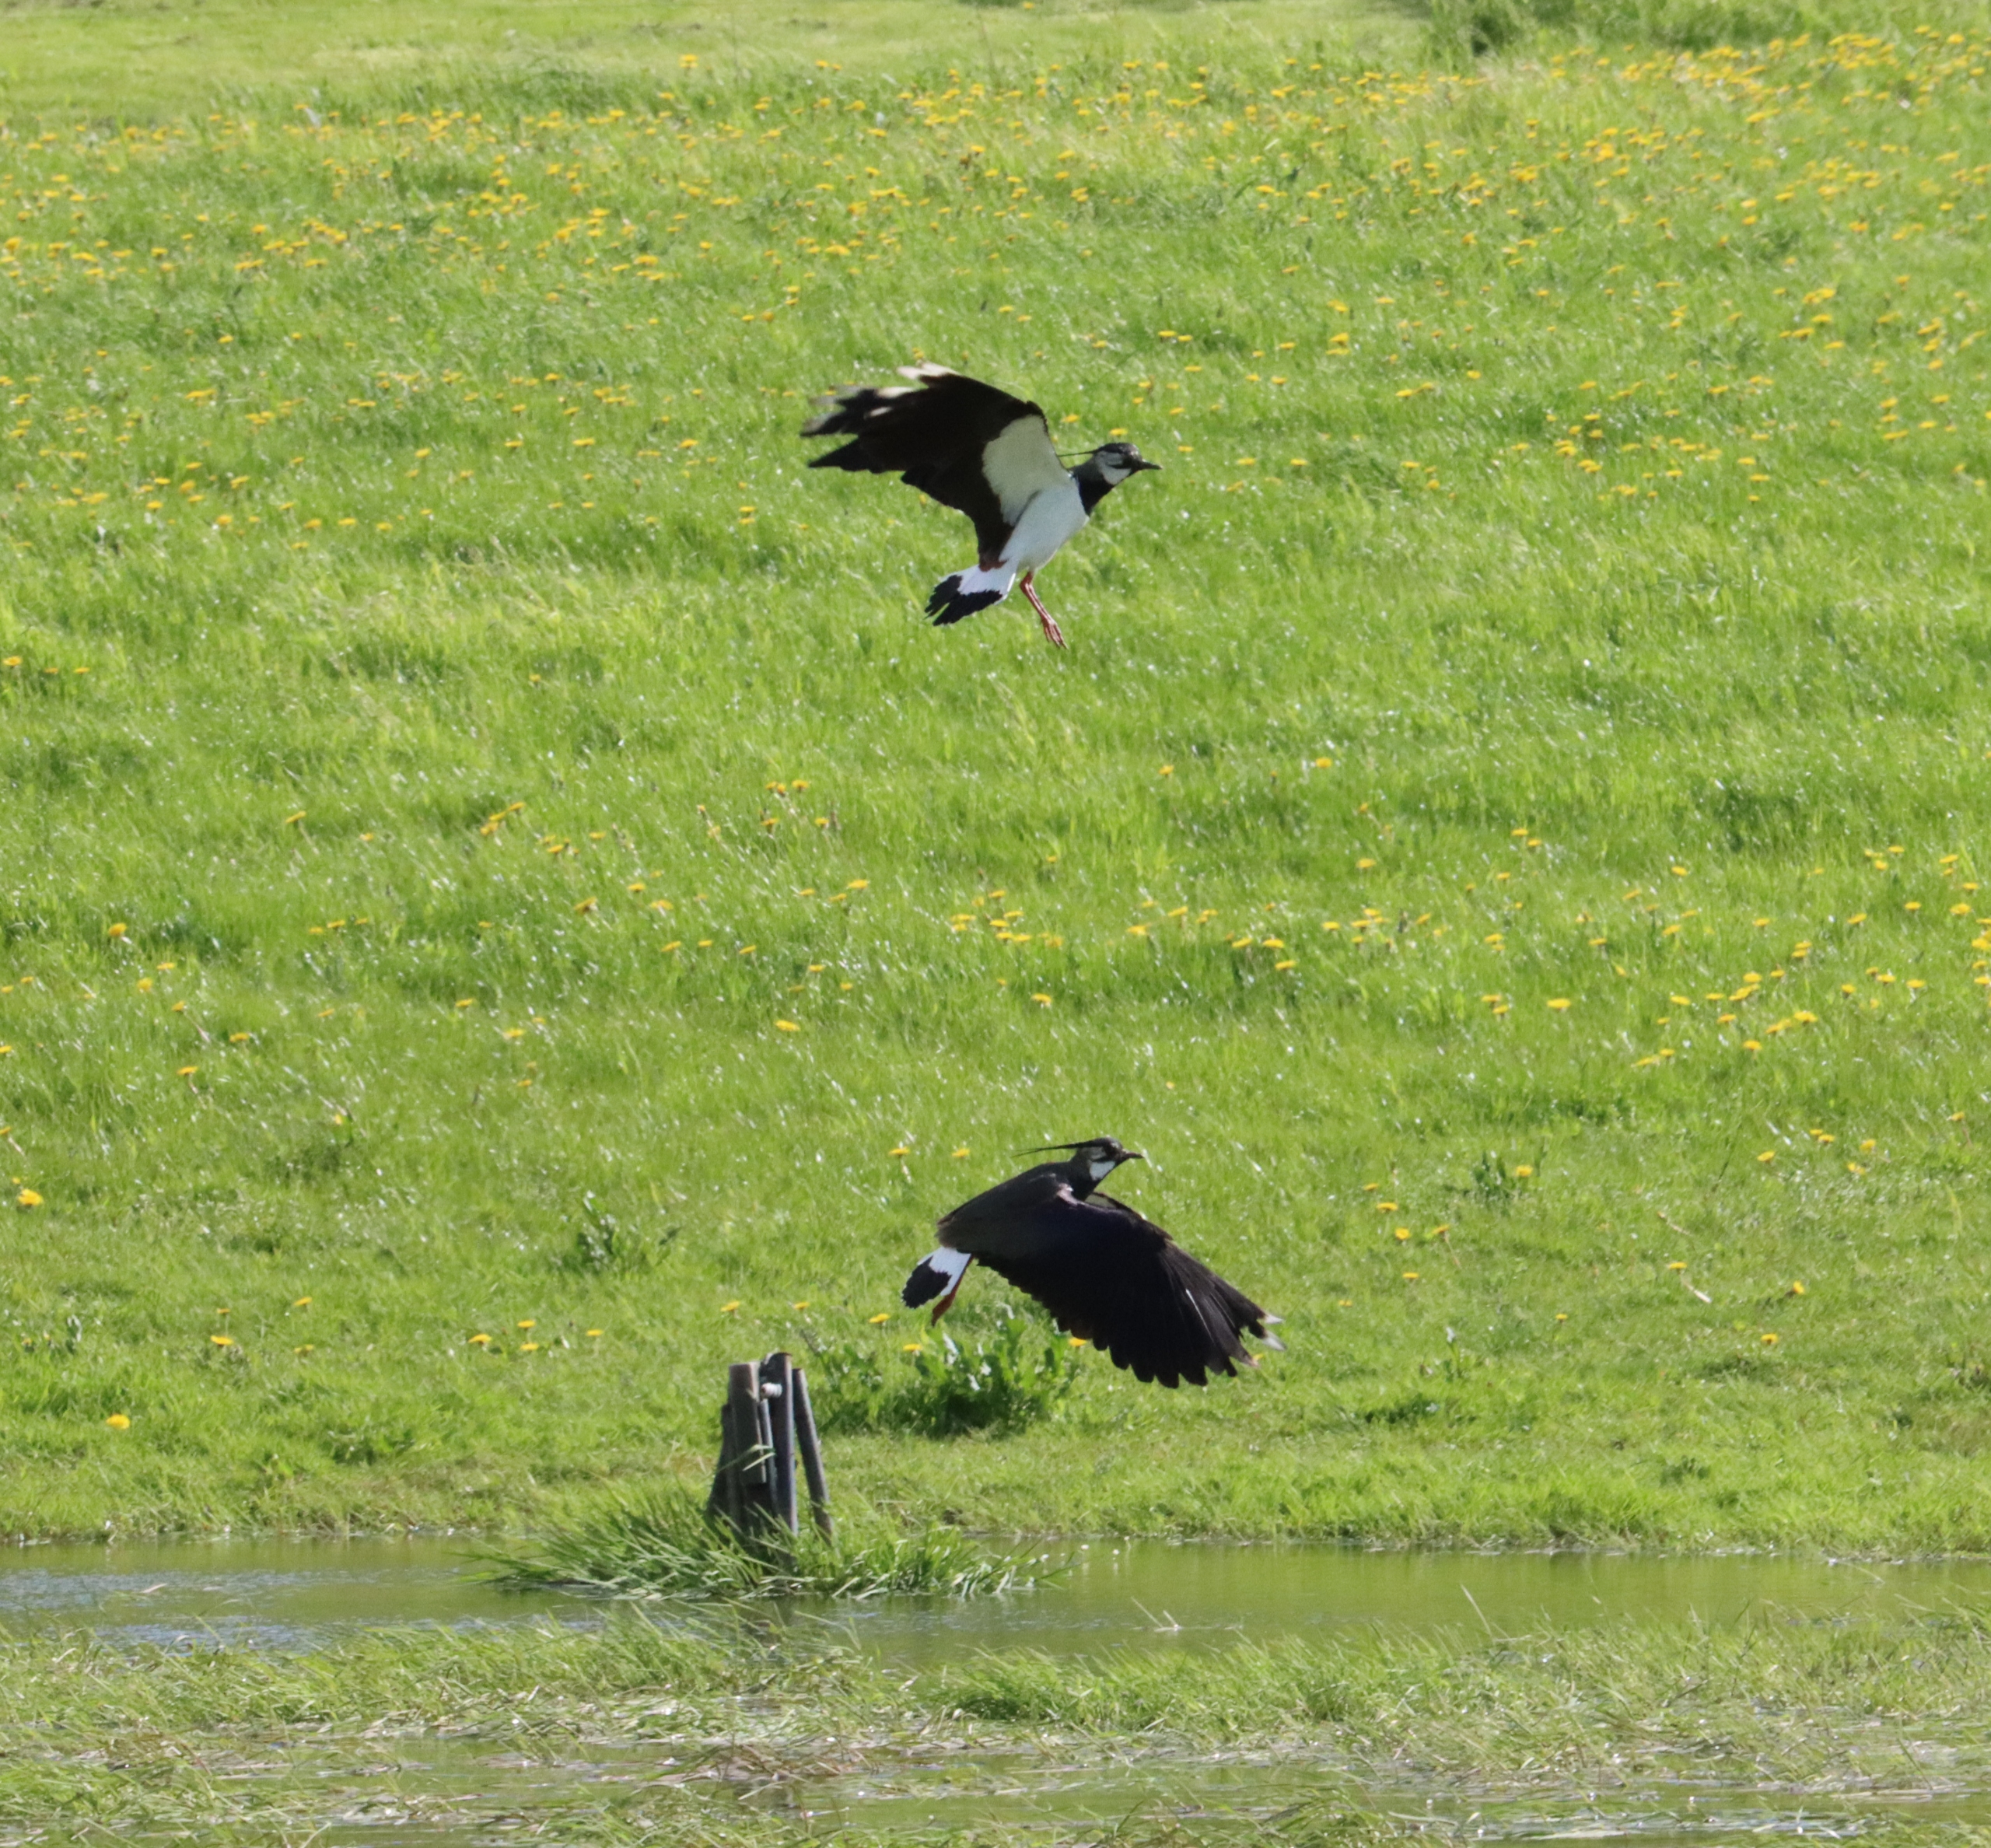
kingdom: Animalia
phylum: Chordata
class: Aves
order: Charadriiformes
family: Charadriidae
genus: Vanellus
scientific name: Vanellus vanellus
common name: Vibe
